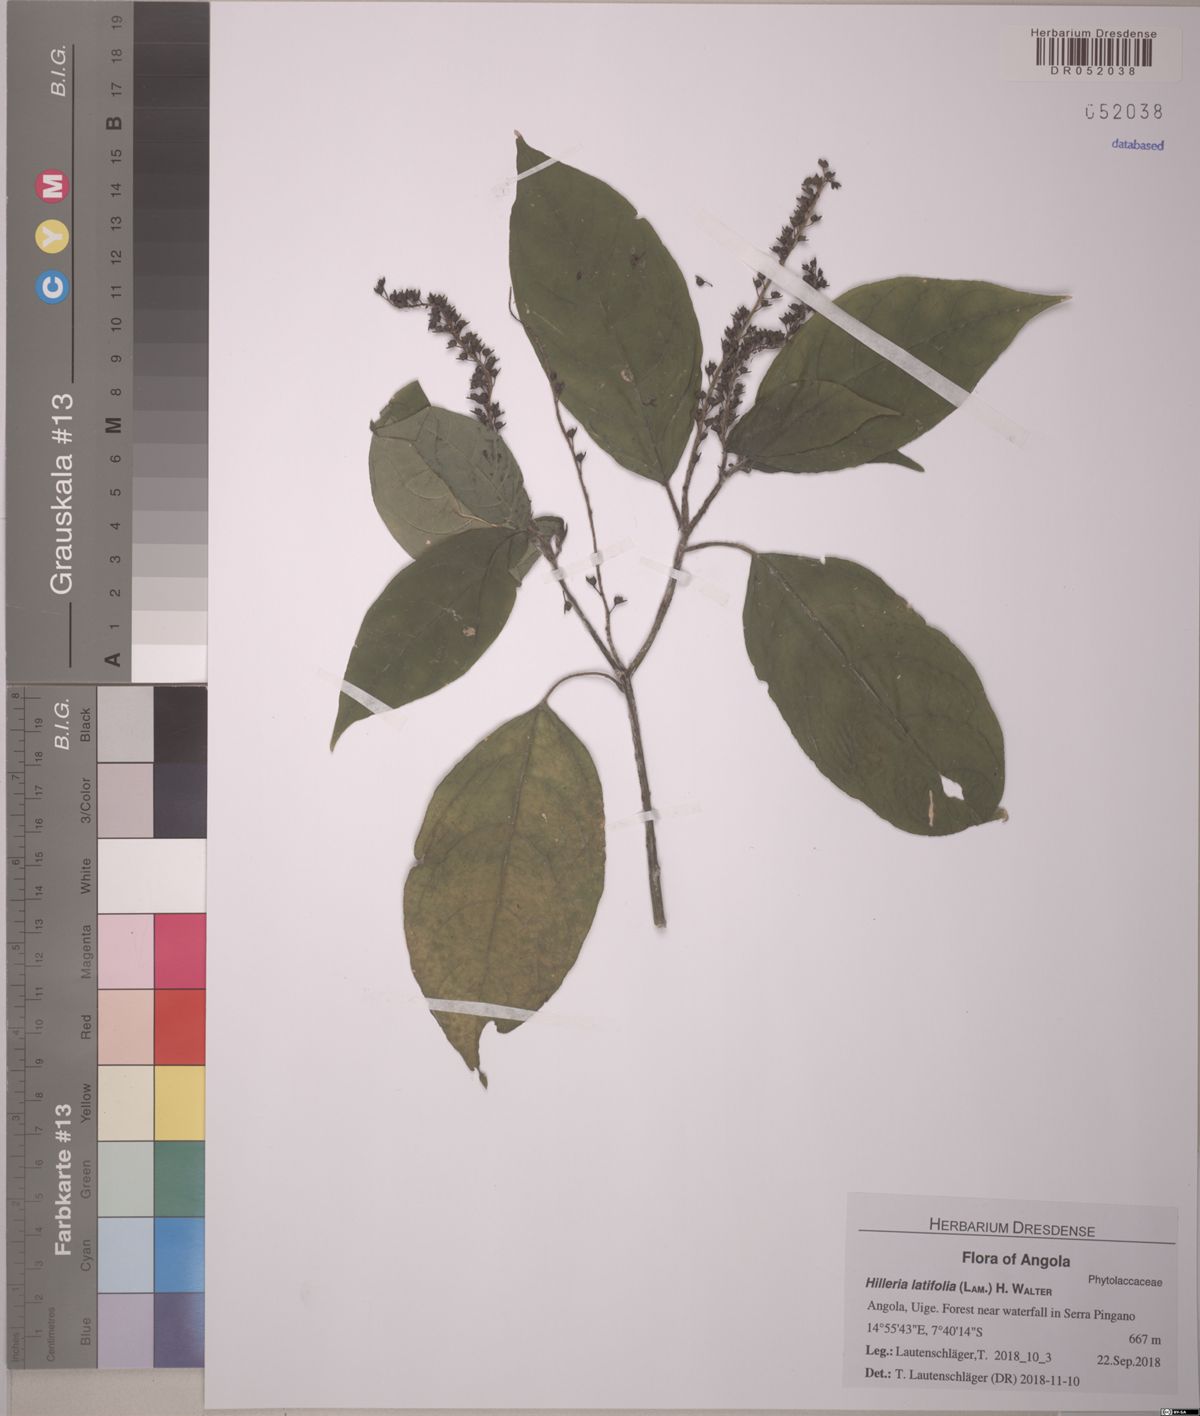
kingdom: Plantae
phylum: Tracheophyta
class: Magnoliopsida
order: Caryophyllales
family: Phytolaccaceae
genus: Hilleria
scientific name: Hilleria latifolia
